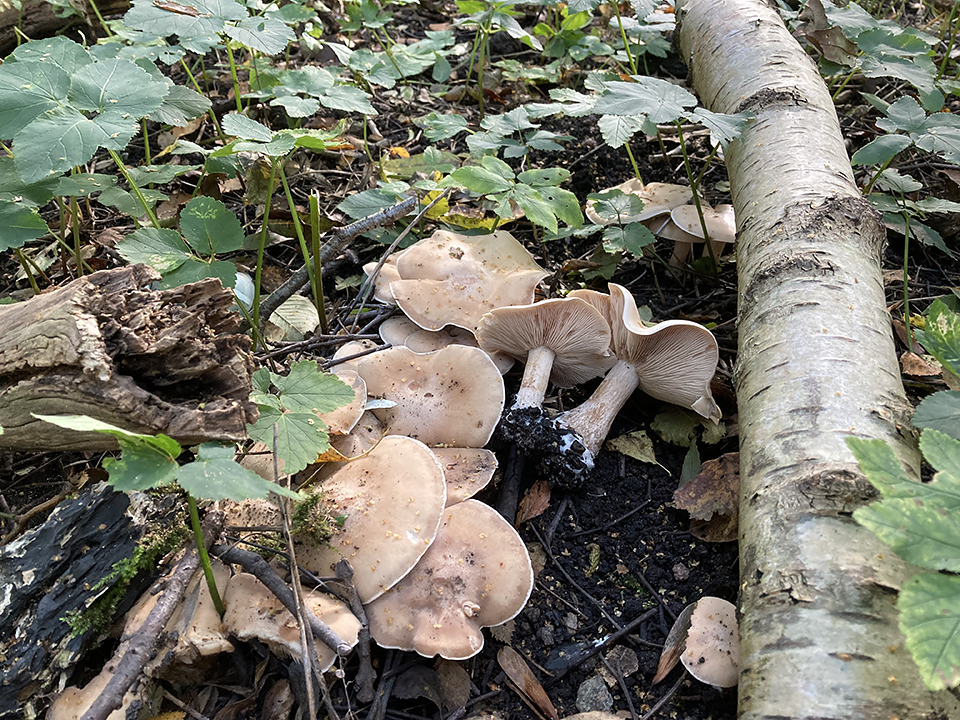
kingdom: Fungi
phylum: Basidiomycota
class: Agaricomycetes
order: Agaricales
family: Tricholomataceae
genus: Lepista
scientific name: Lepista irina
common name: violduftende hekseringshat
